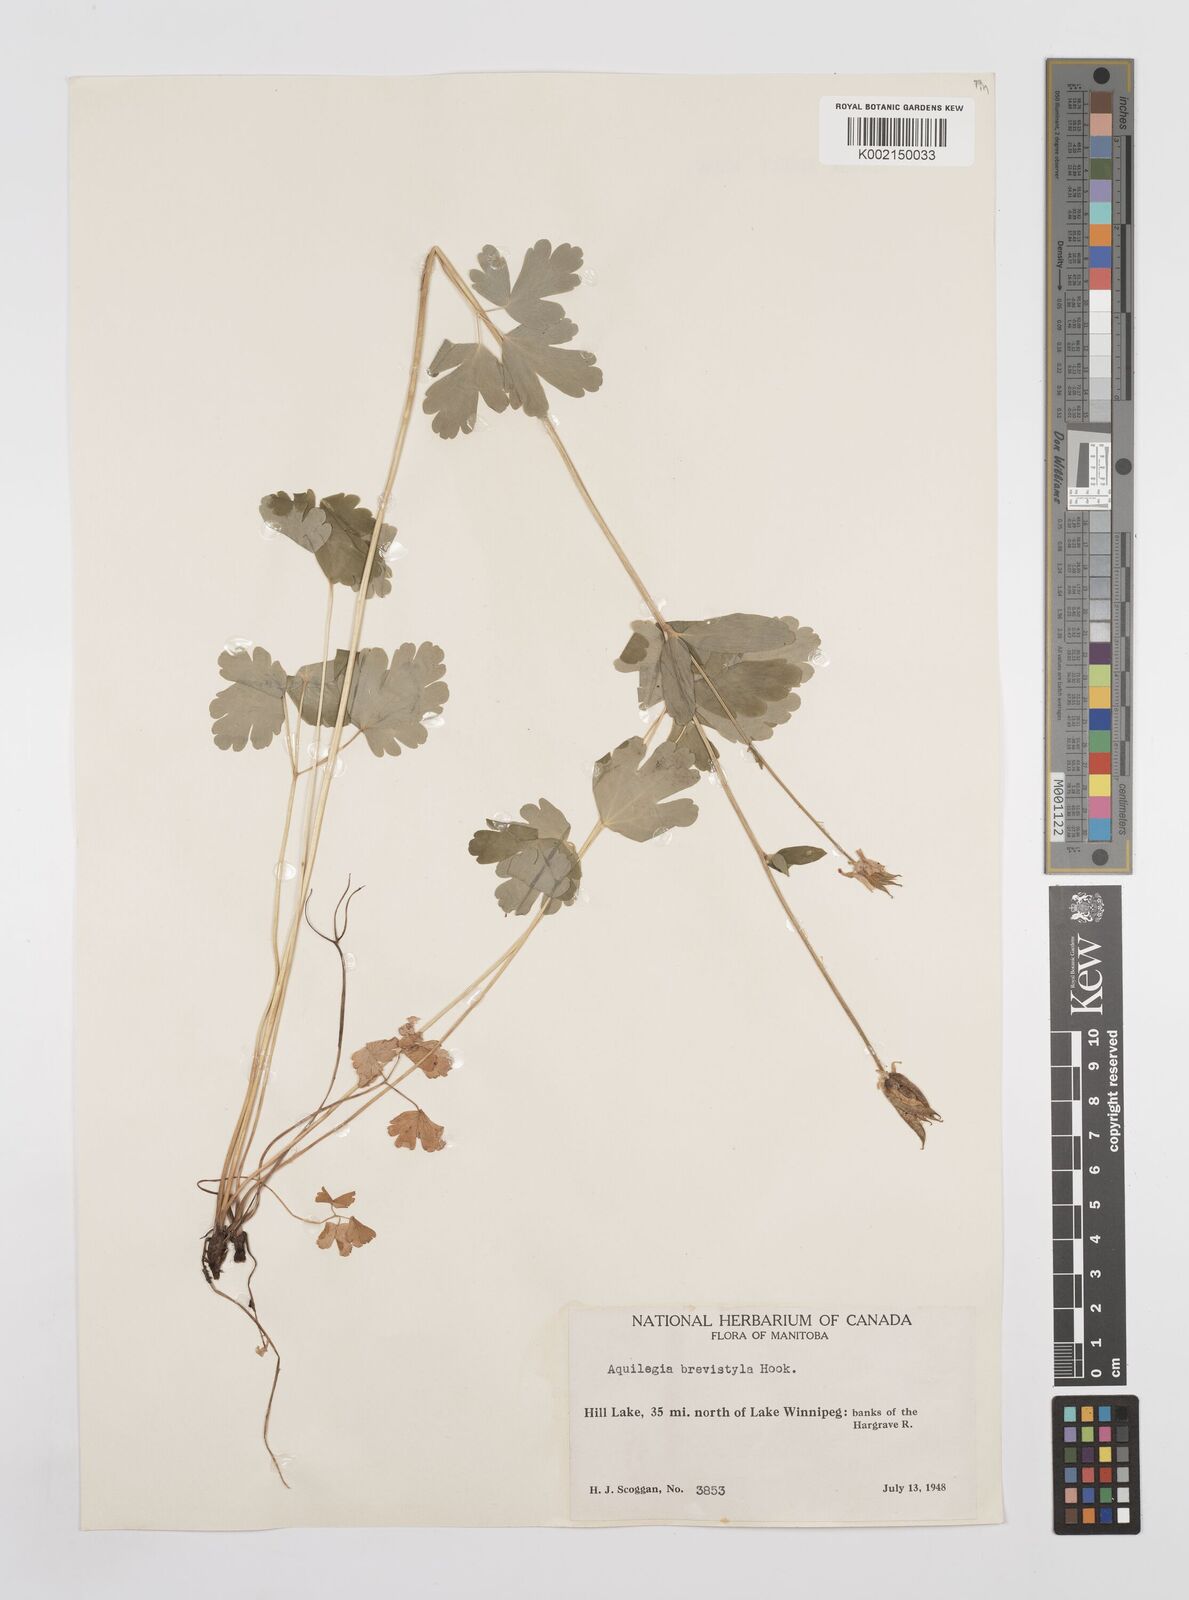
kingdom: Plantae
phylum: Tracheophyta
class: Magnoliopsida
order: Ranunculales
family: Ranunculaceae
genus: Aquilegia
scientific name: Aquilegia brevistyla
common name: Yukon columbine
